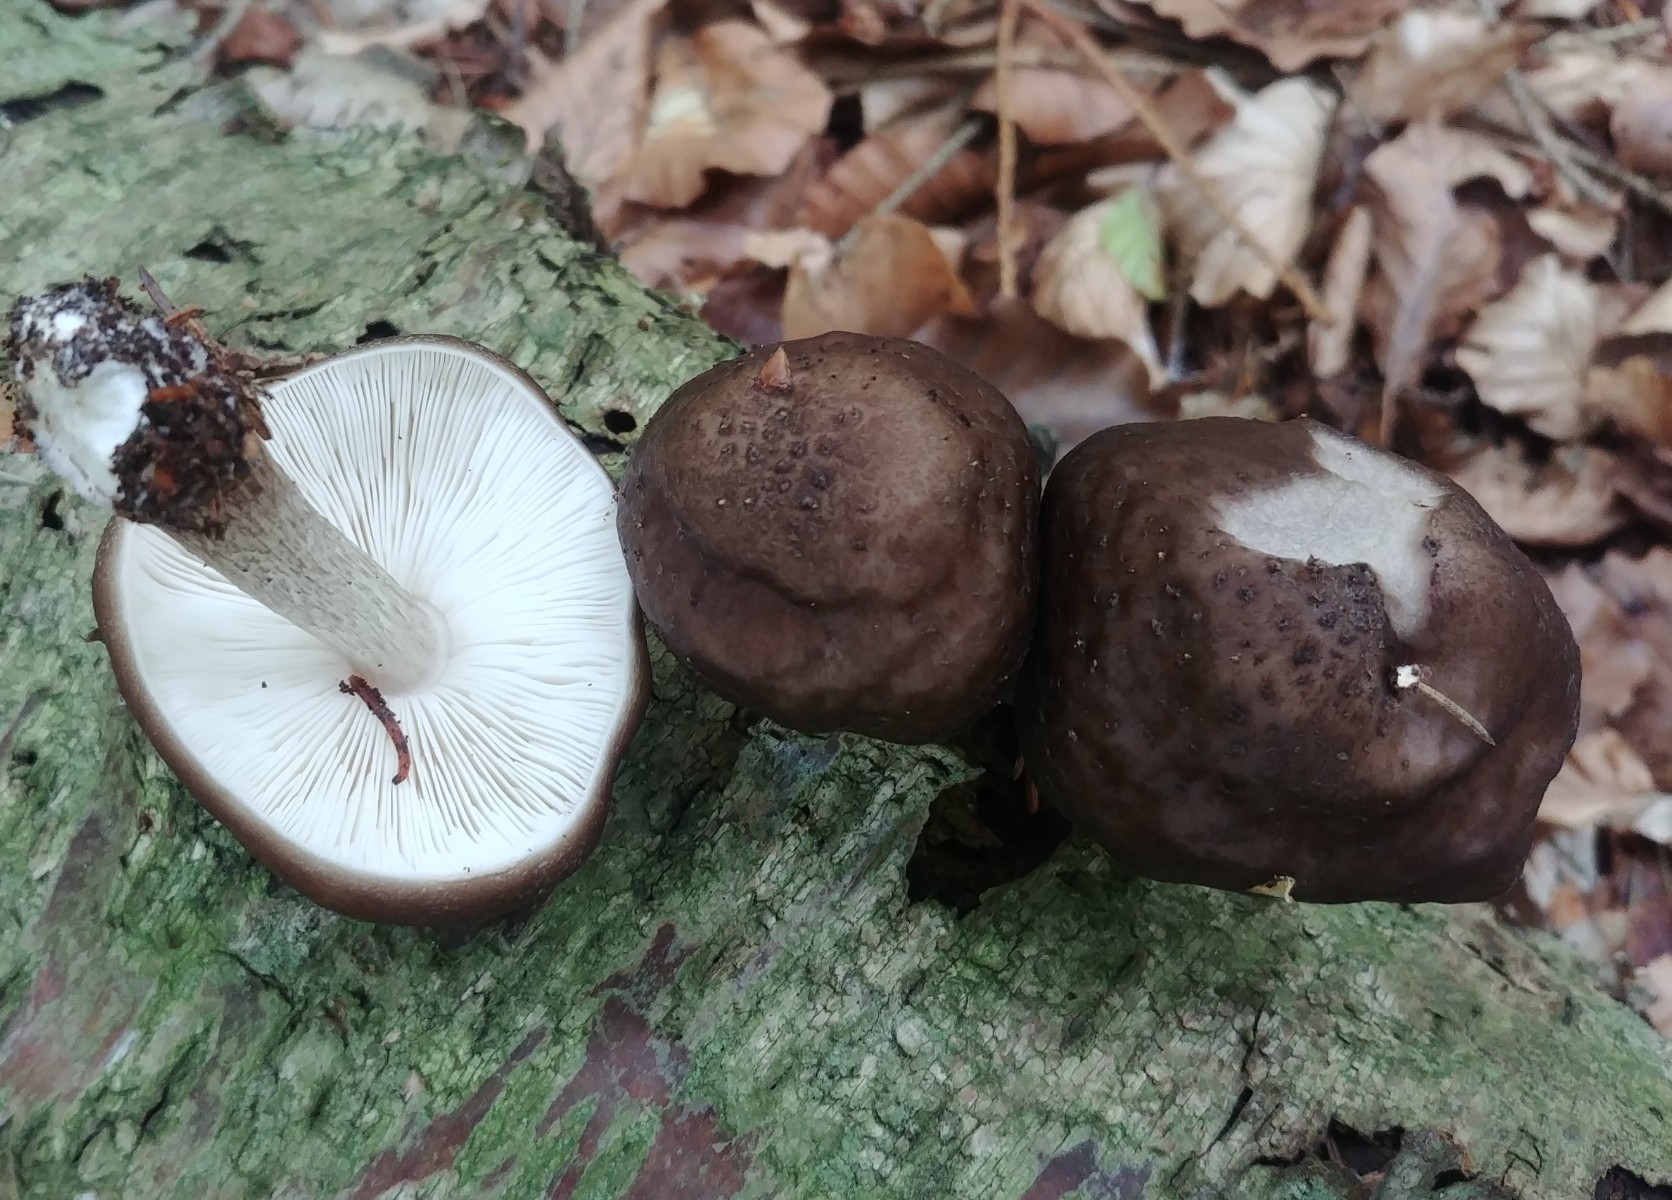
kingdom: Fungi
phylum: Basidiomycota
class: Agaricomycetes
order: Agaricales
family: Pluteaceae
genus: Pluteus
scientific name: Pluteus cervinus
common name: sodfarvet skærmhat
